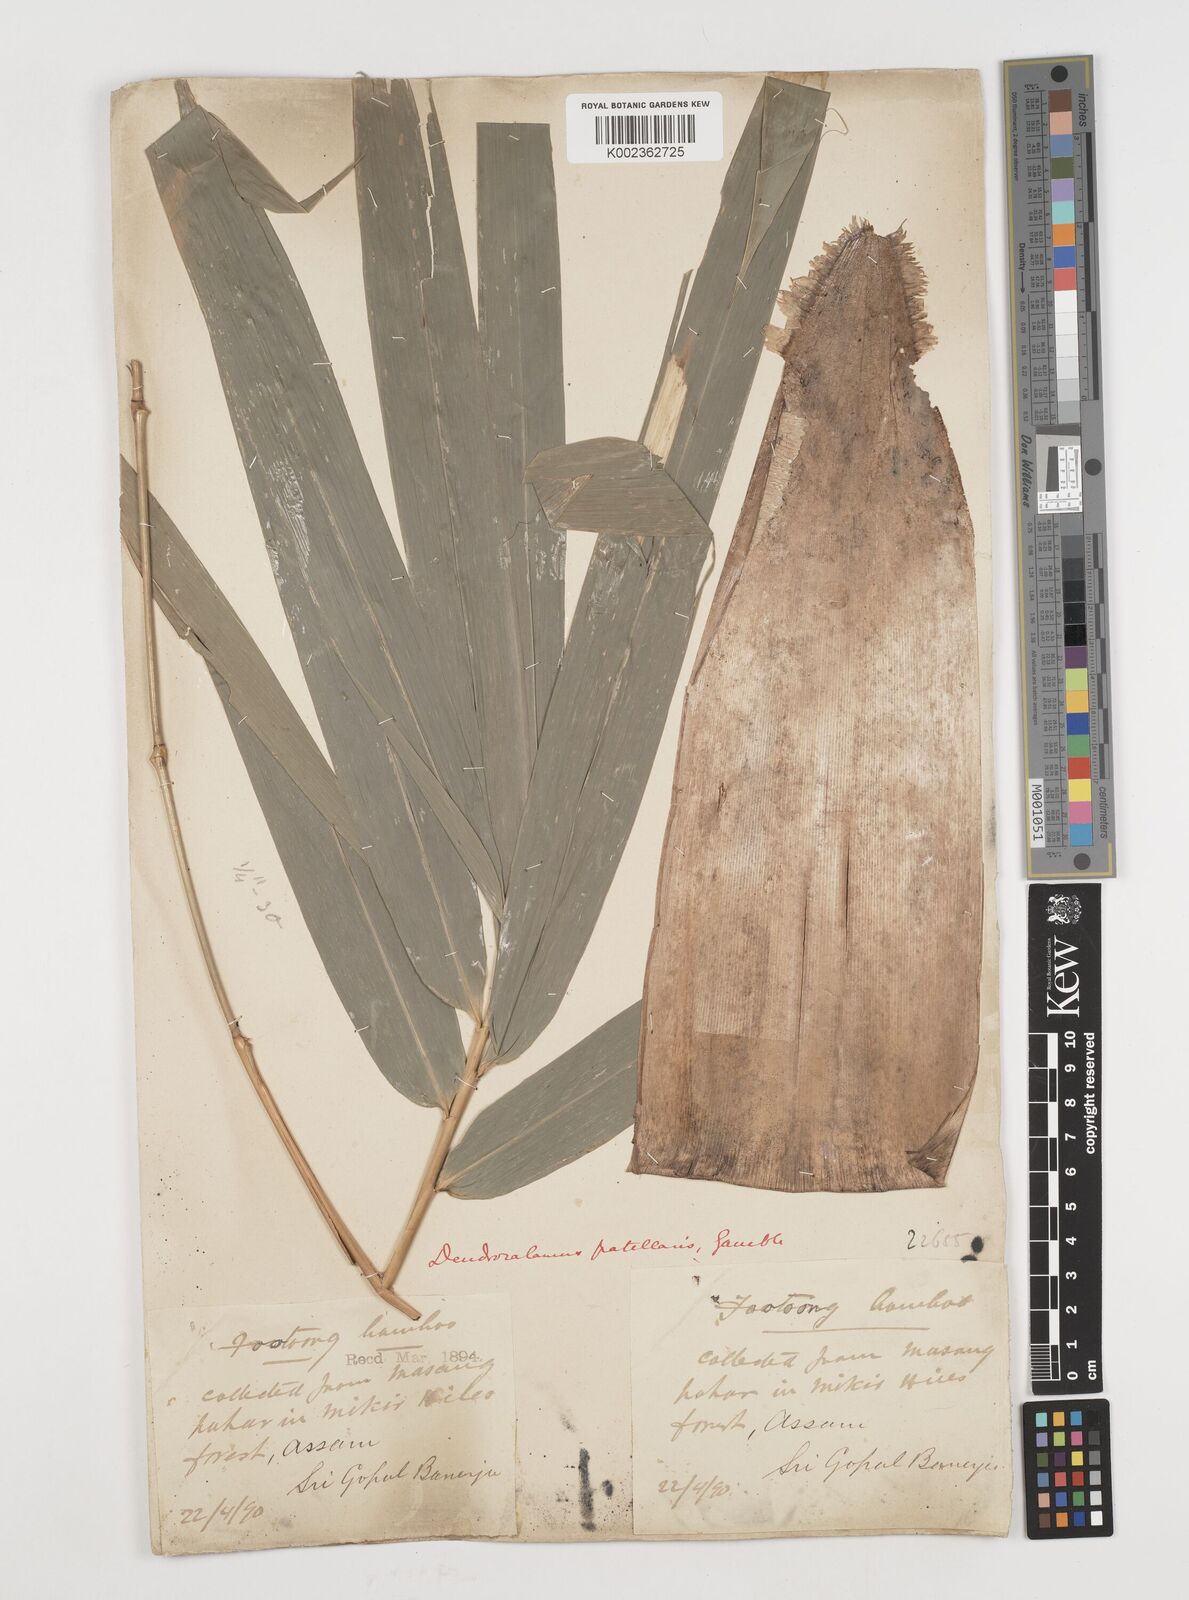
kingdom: Plantae
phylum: Tracheophyta
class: Liliopsida
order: Poales
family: Poaceae
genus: Ampelocalamus
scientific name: Ampelocalamus patellaris
